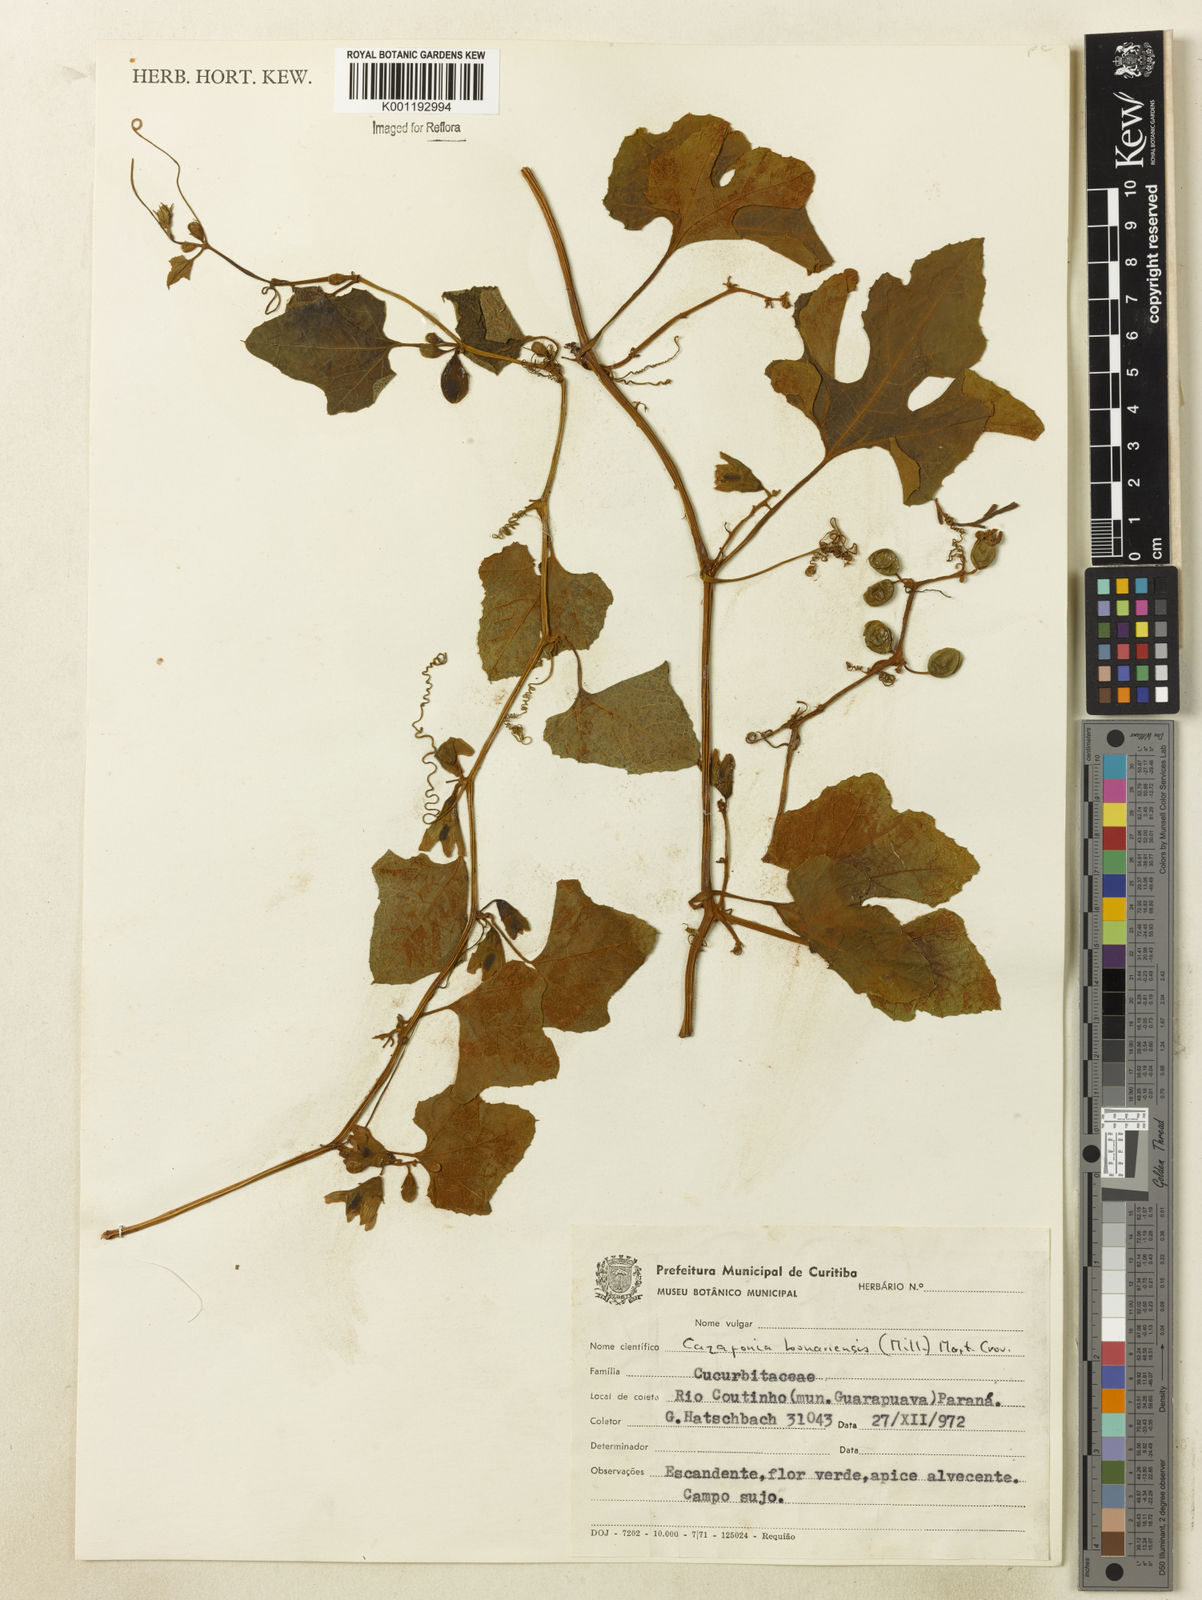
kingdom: Plantae
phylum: Tracheophyta
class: Magnoliopsida
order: Cucurbitales
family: Cucurbitaceae
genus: Cayaponia
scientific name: Cayaponia bonariensis
